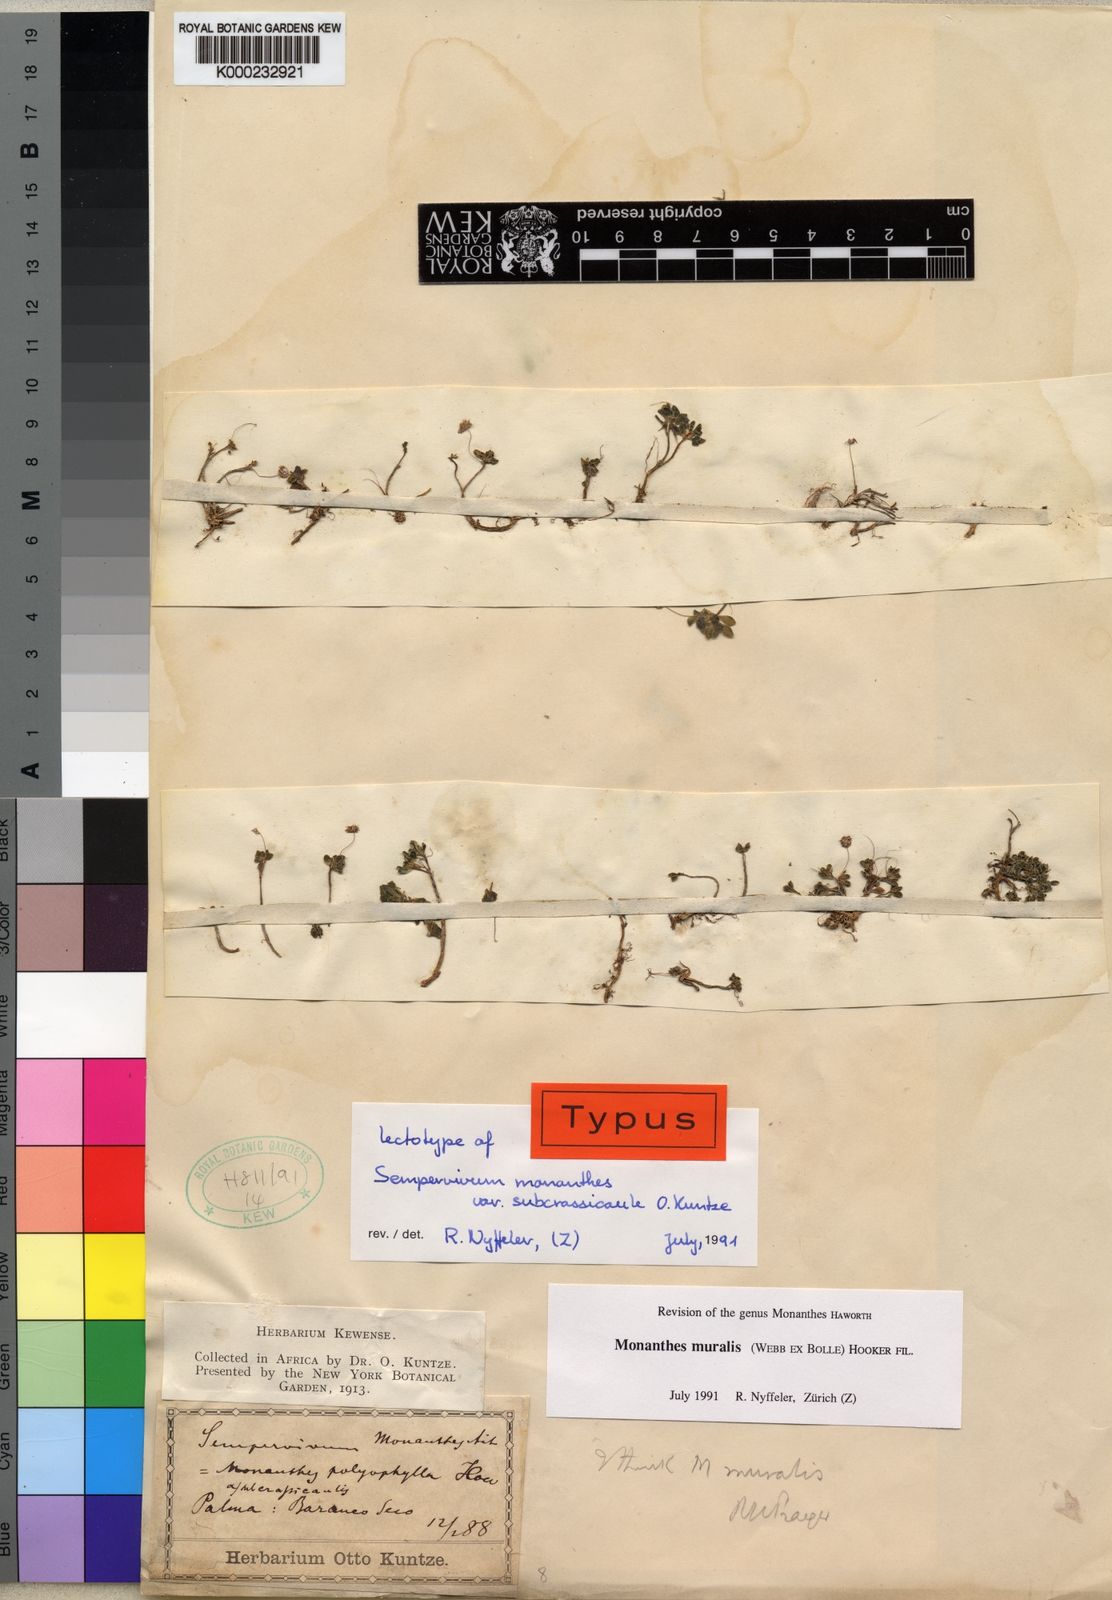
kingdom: Plantae
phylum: Tracheophyta
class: Magnoliopsida
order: Saxifragales
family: Crassulaceae
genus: Monanthes
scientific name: Monanthes atlantica
